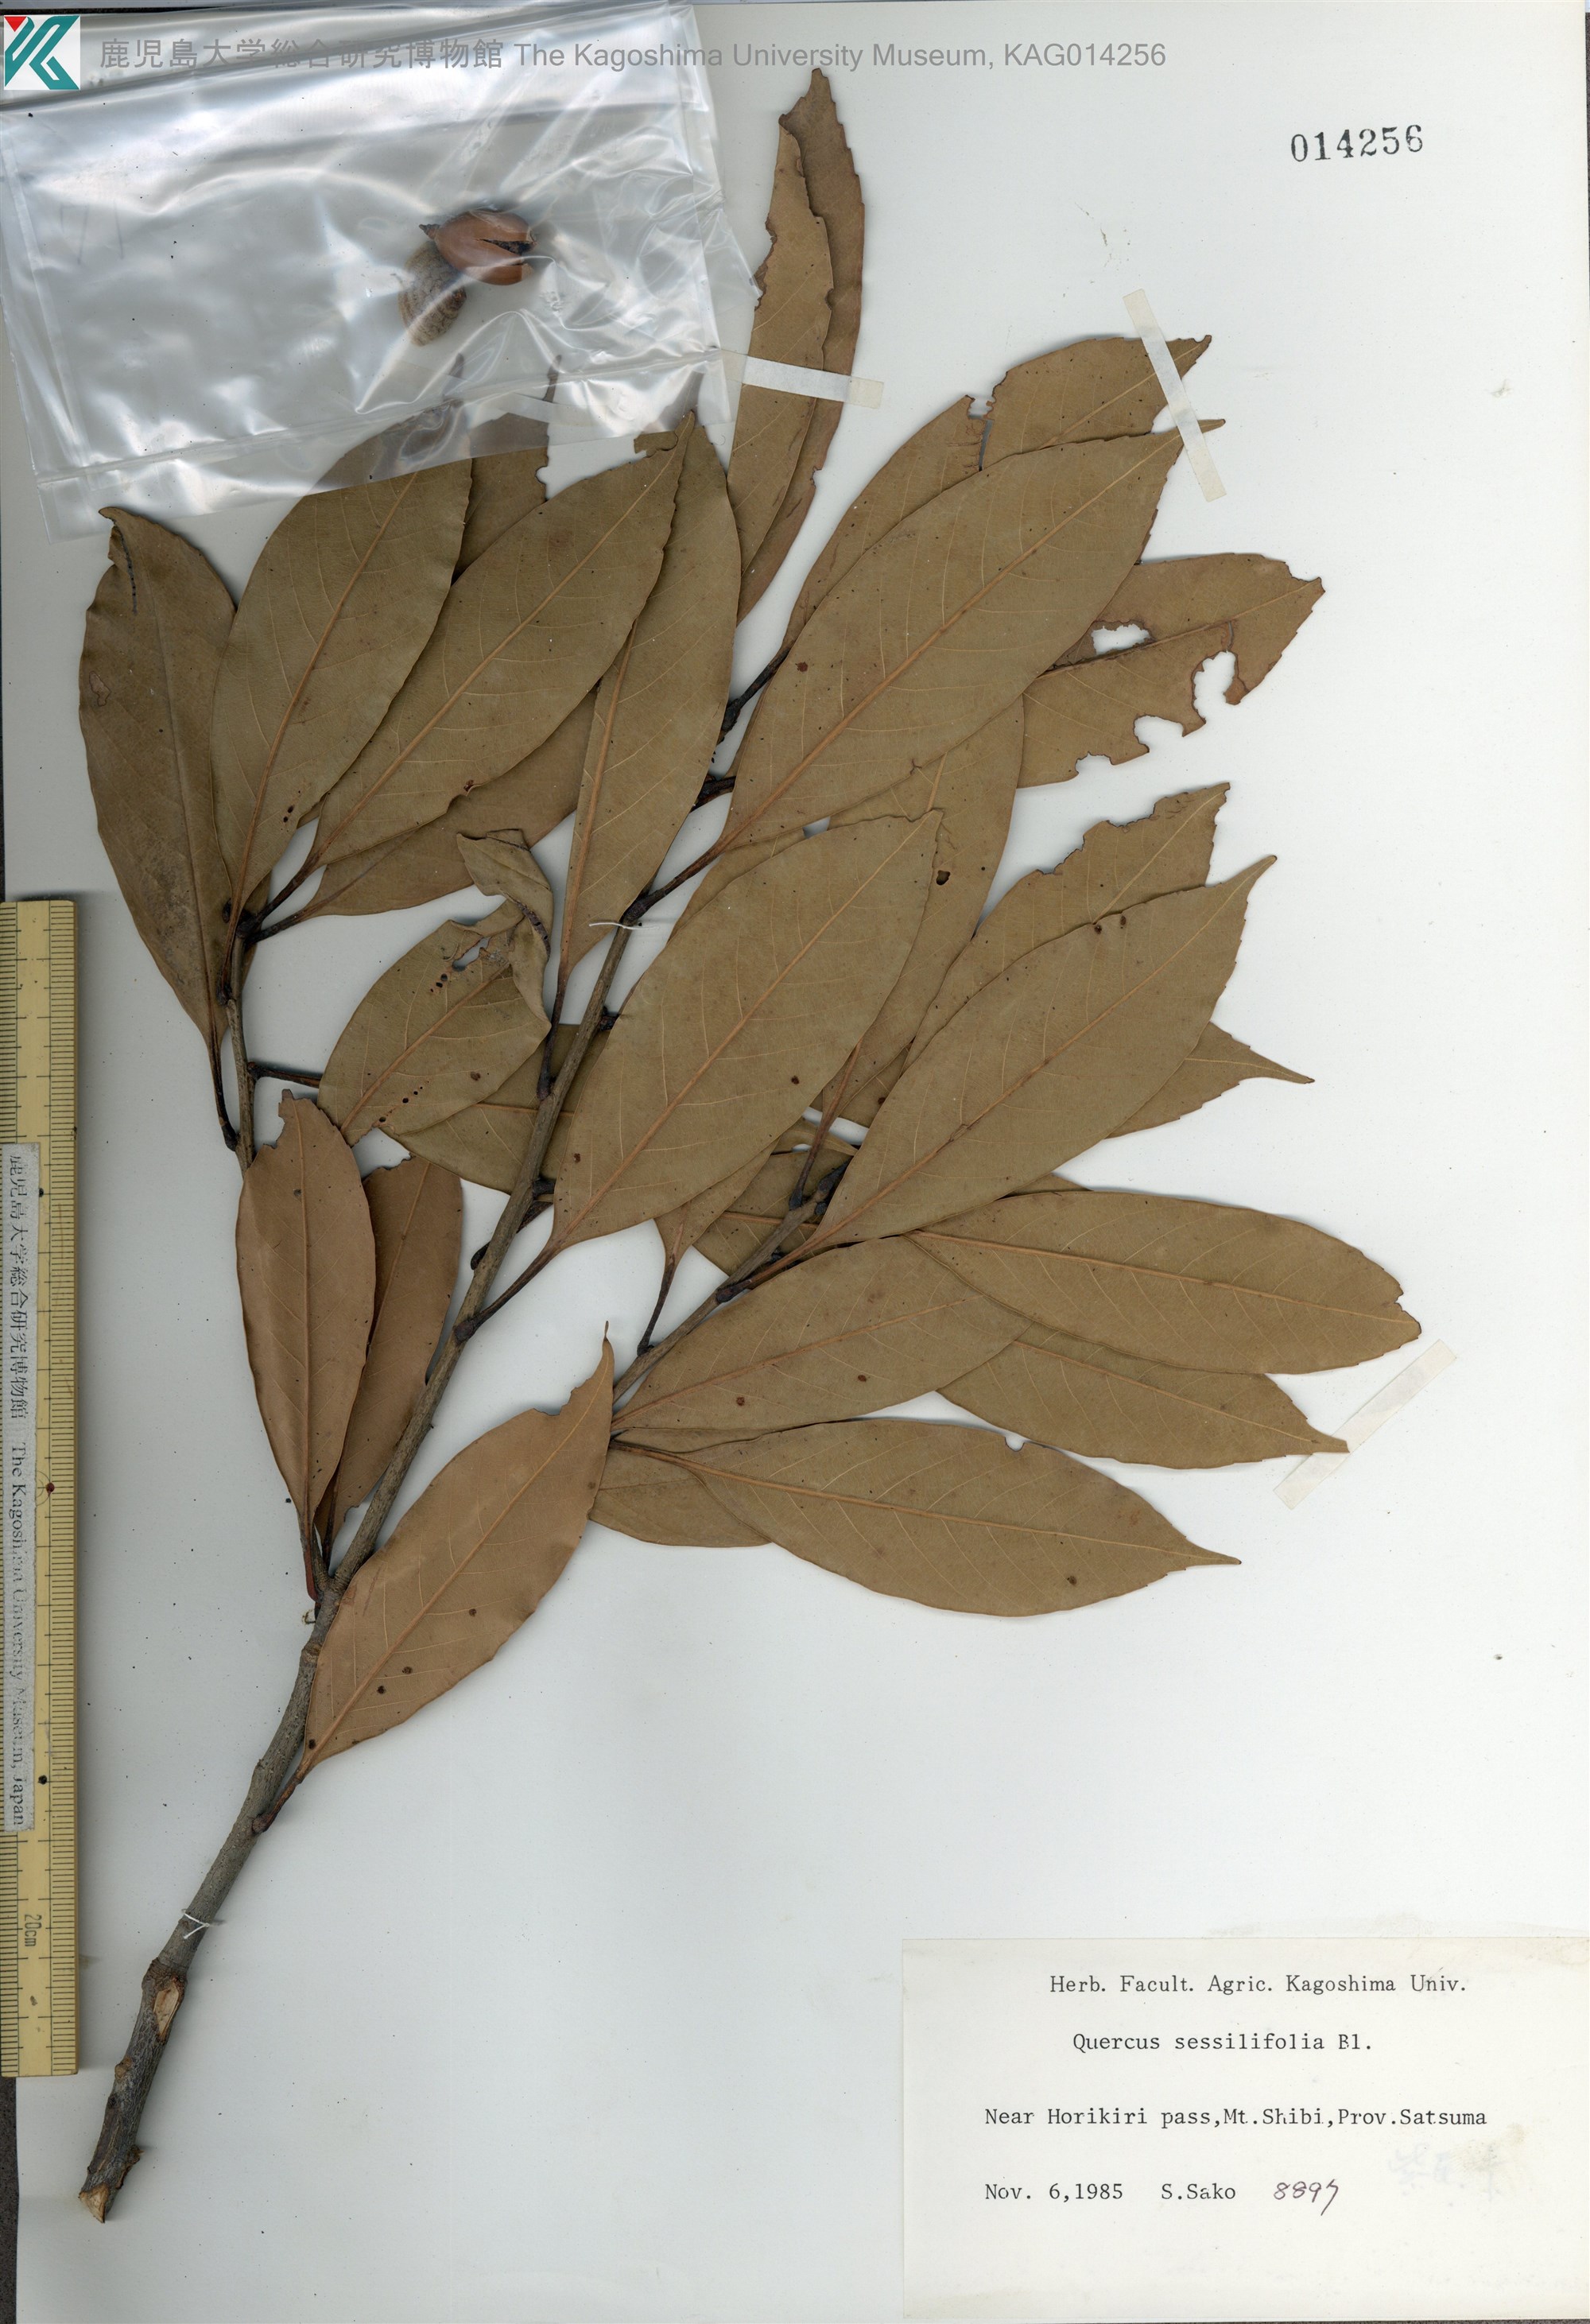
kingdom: Plantae
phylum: Tracheophyta
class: Magnoliopsida
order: Fagales
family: Fagaceae
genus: Quercus
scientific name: Quercus sessilifolia
